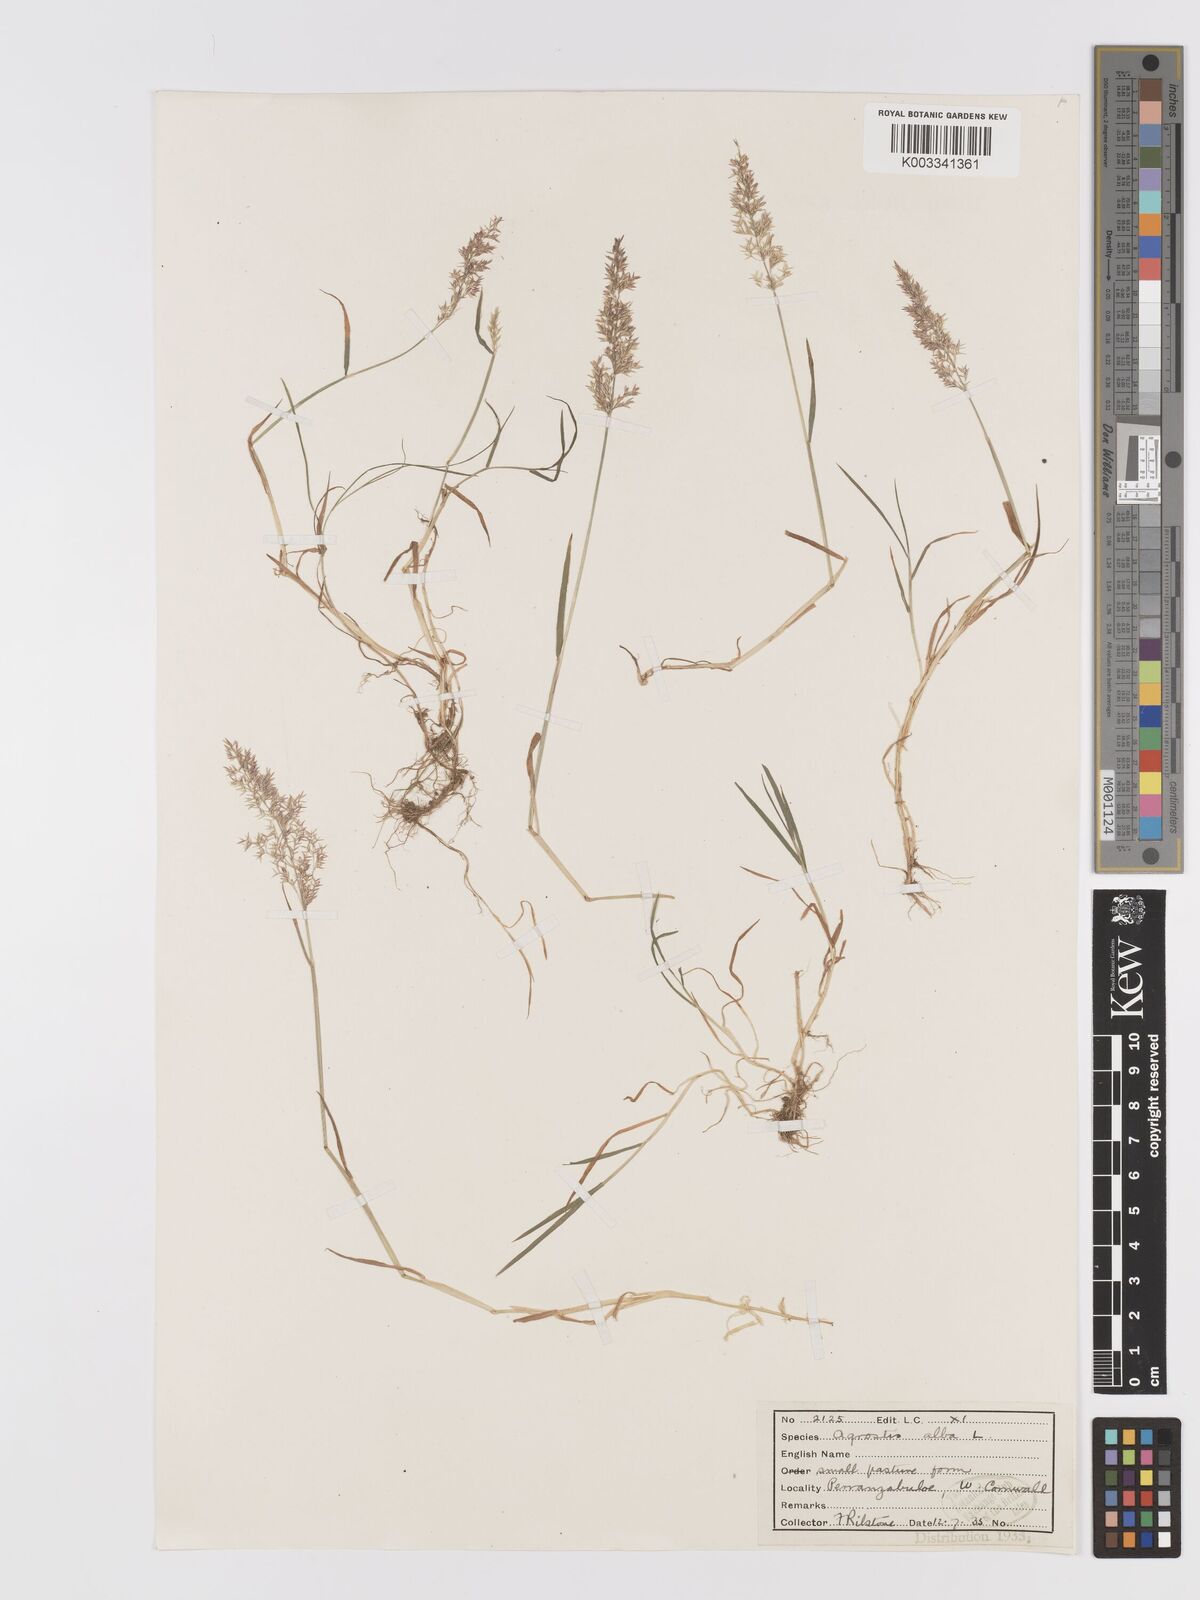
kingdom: Plantae
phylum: Tracheophyta
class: Liliopsida
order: Poales
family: Poaceae
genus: Agrostis
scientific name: Agrostis stolonifera
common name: Creeping bentgrass
